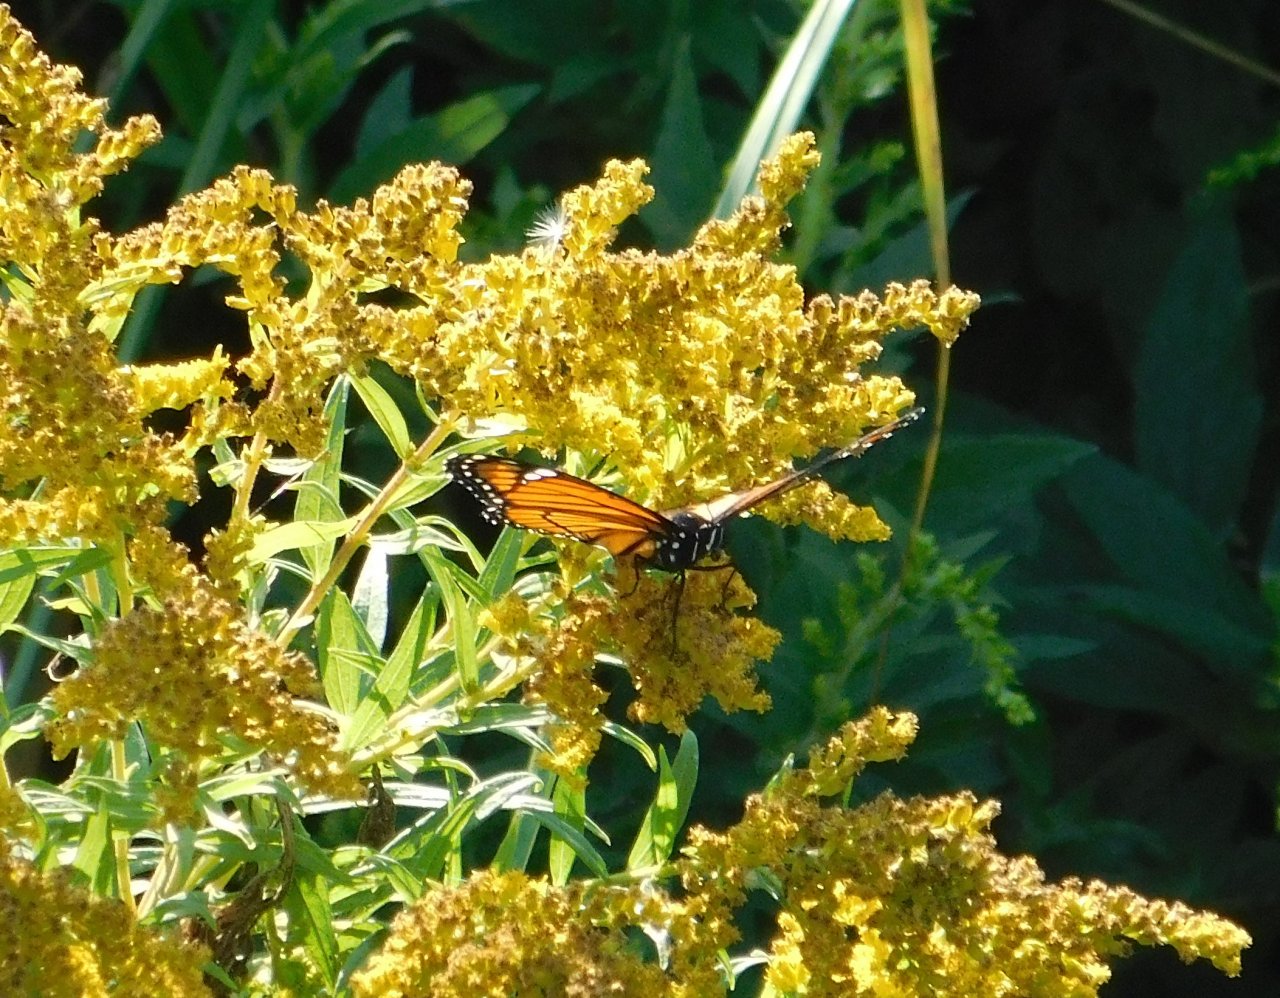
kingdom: Animalia
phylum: Arthropoda
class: Insecta
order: Lepidoptera
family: Nymphalidae
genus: Limenitis
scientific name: Limenitis archippus
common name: Viceroy
